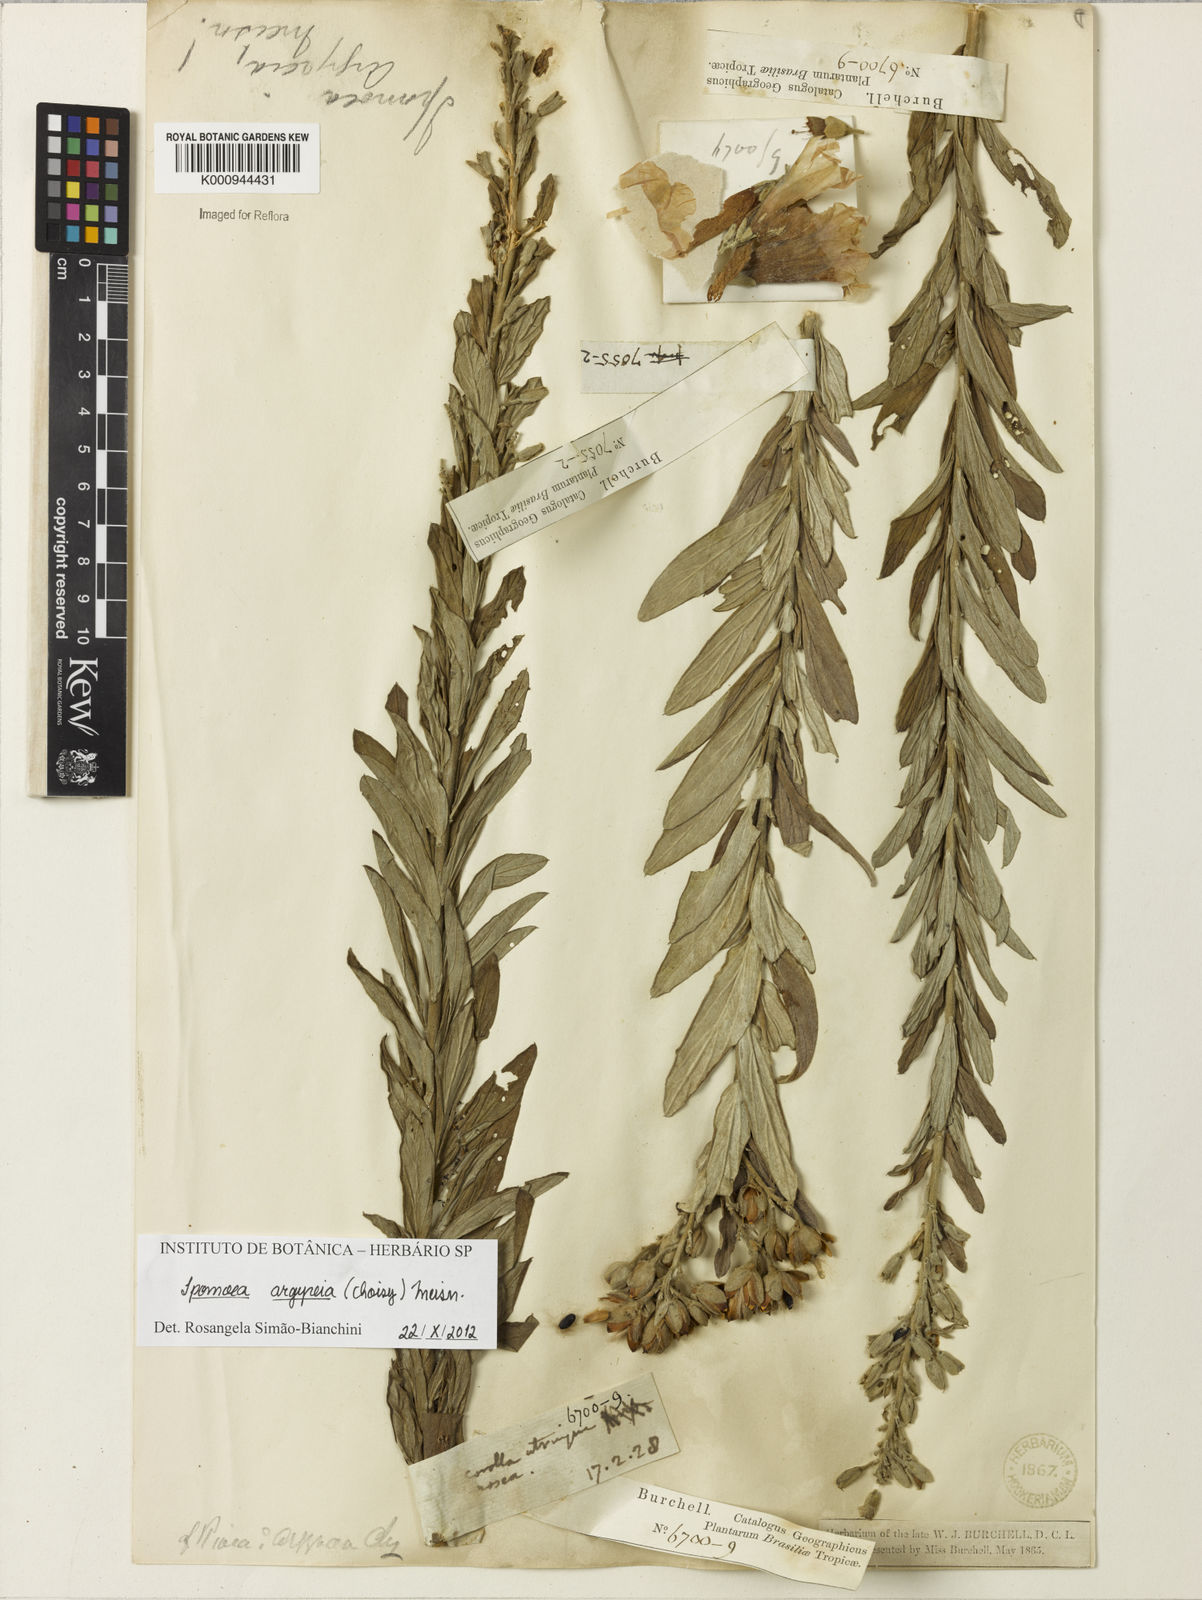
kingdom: Plantae
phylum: Tracheophyta
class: Magnoliopsida
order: Solanales
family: Convolvulaceae
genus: Ipomoea
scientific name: Ipomoea argyreia
